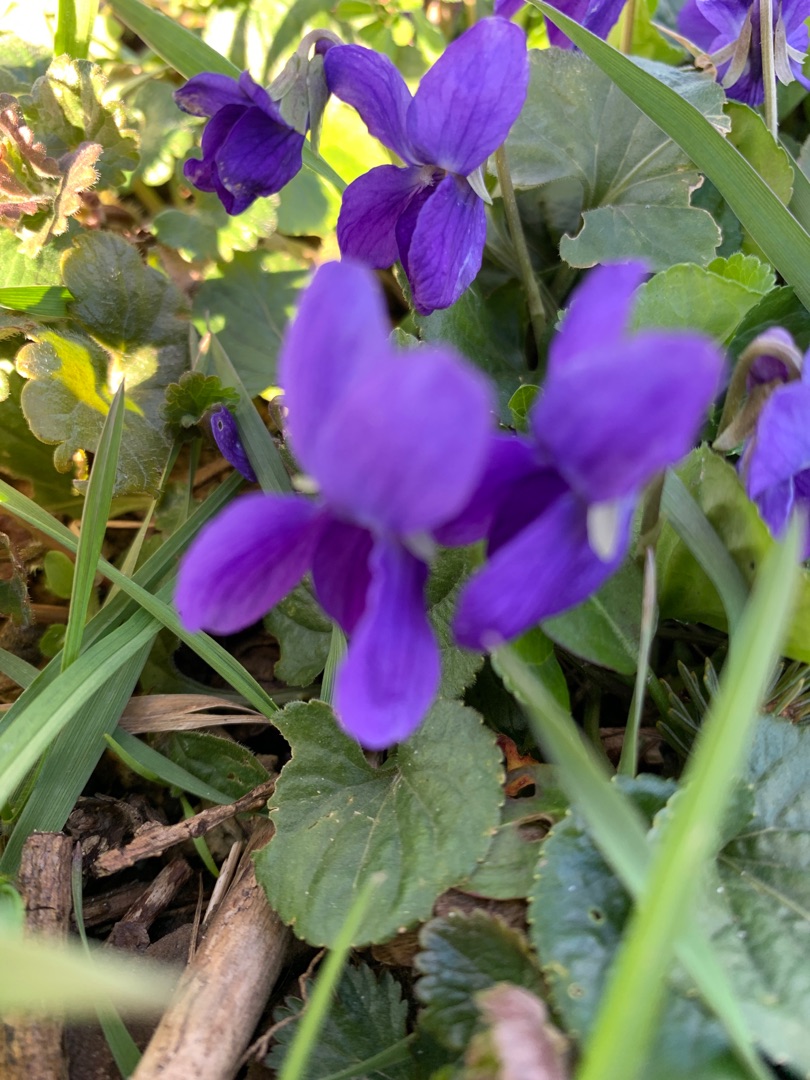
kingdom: Plantae
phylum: Tracheophyta
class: Magnoliopsida
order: Malpighiales
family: Violaceae
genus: Viola
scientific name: Viola odorata
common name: Marts-viol
